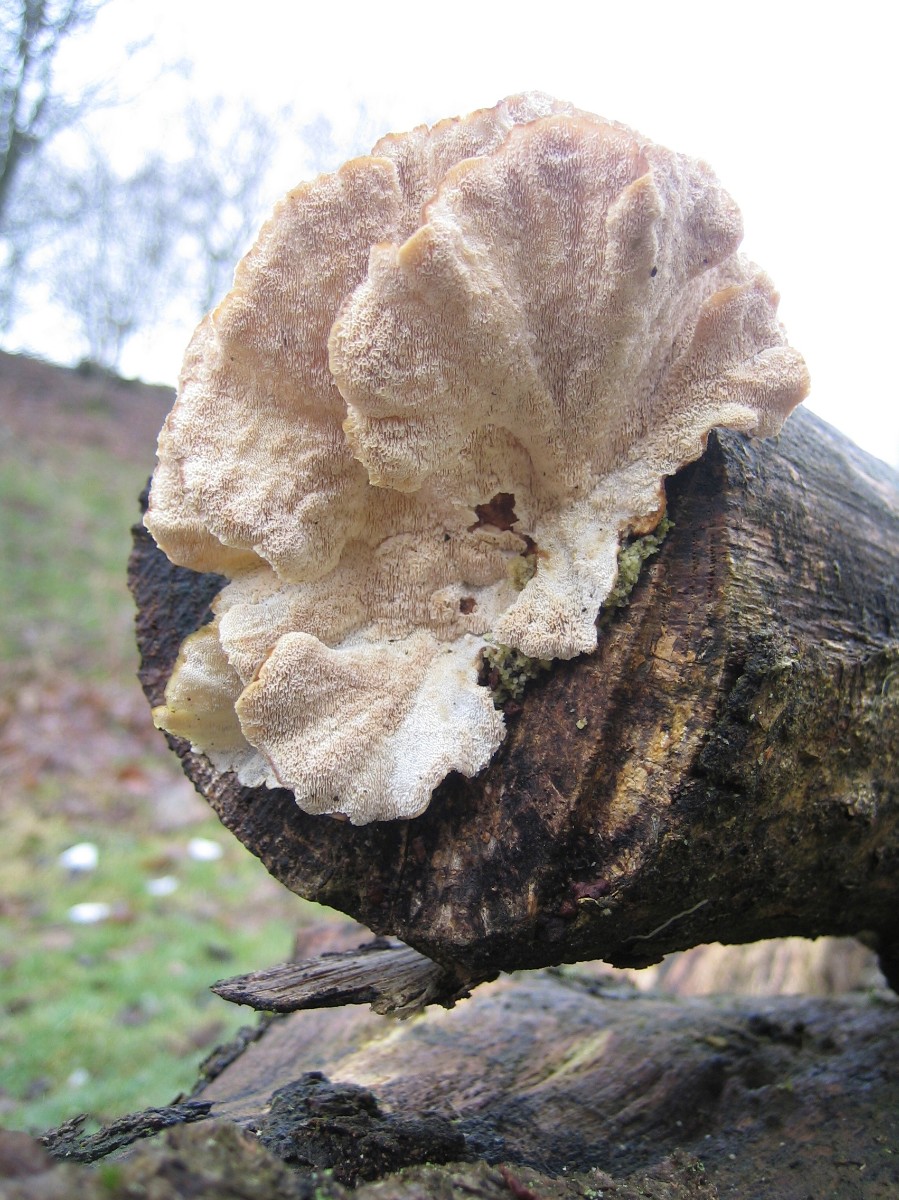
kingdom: Fungi
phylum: Basidiomycota
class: Agaricomycetes
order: Polyporales
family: Polyporaceae
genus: Trametes
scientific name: Trametes versicolor
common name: broget læderporesvamp
